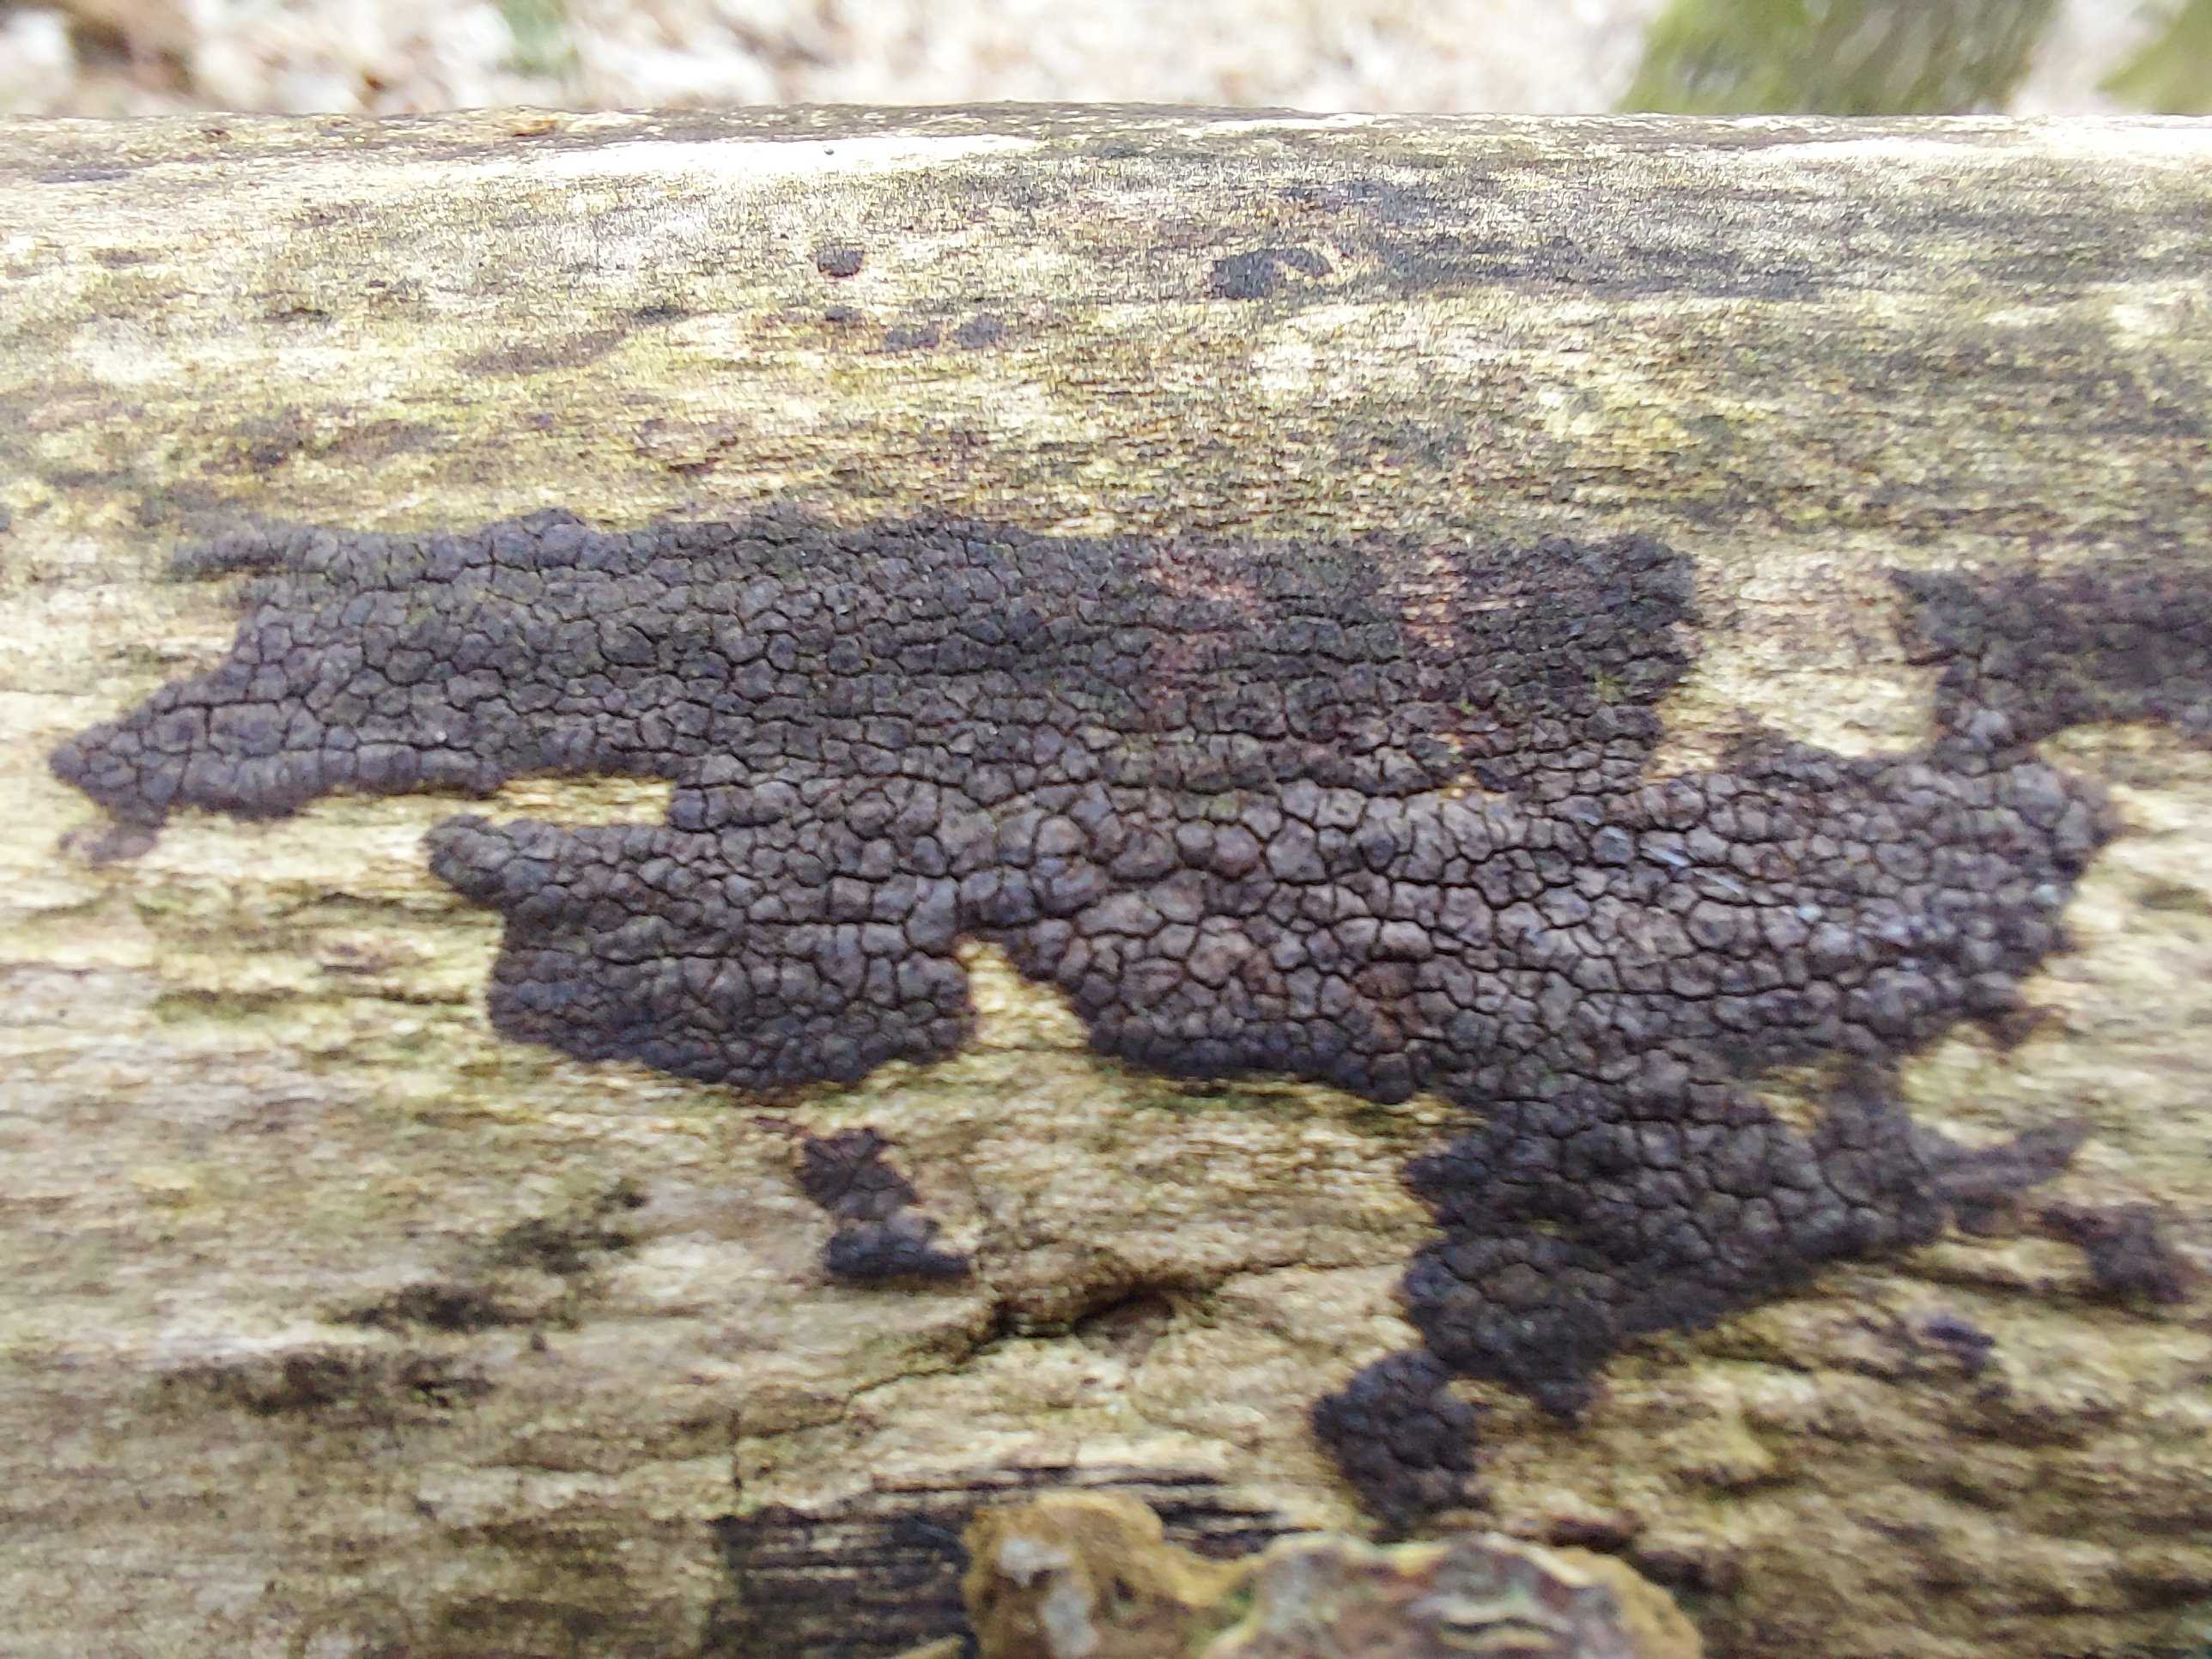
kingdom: Fungi
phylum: Basidiomycota
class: Agaricomycetes
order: Russulales
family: Peniophoraceae
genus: Peniophora
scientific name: Peniophora
